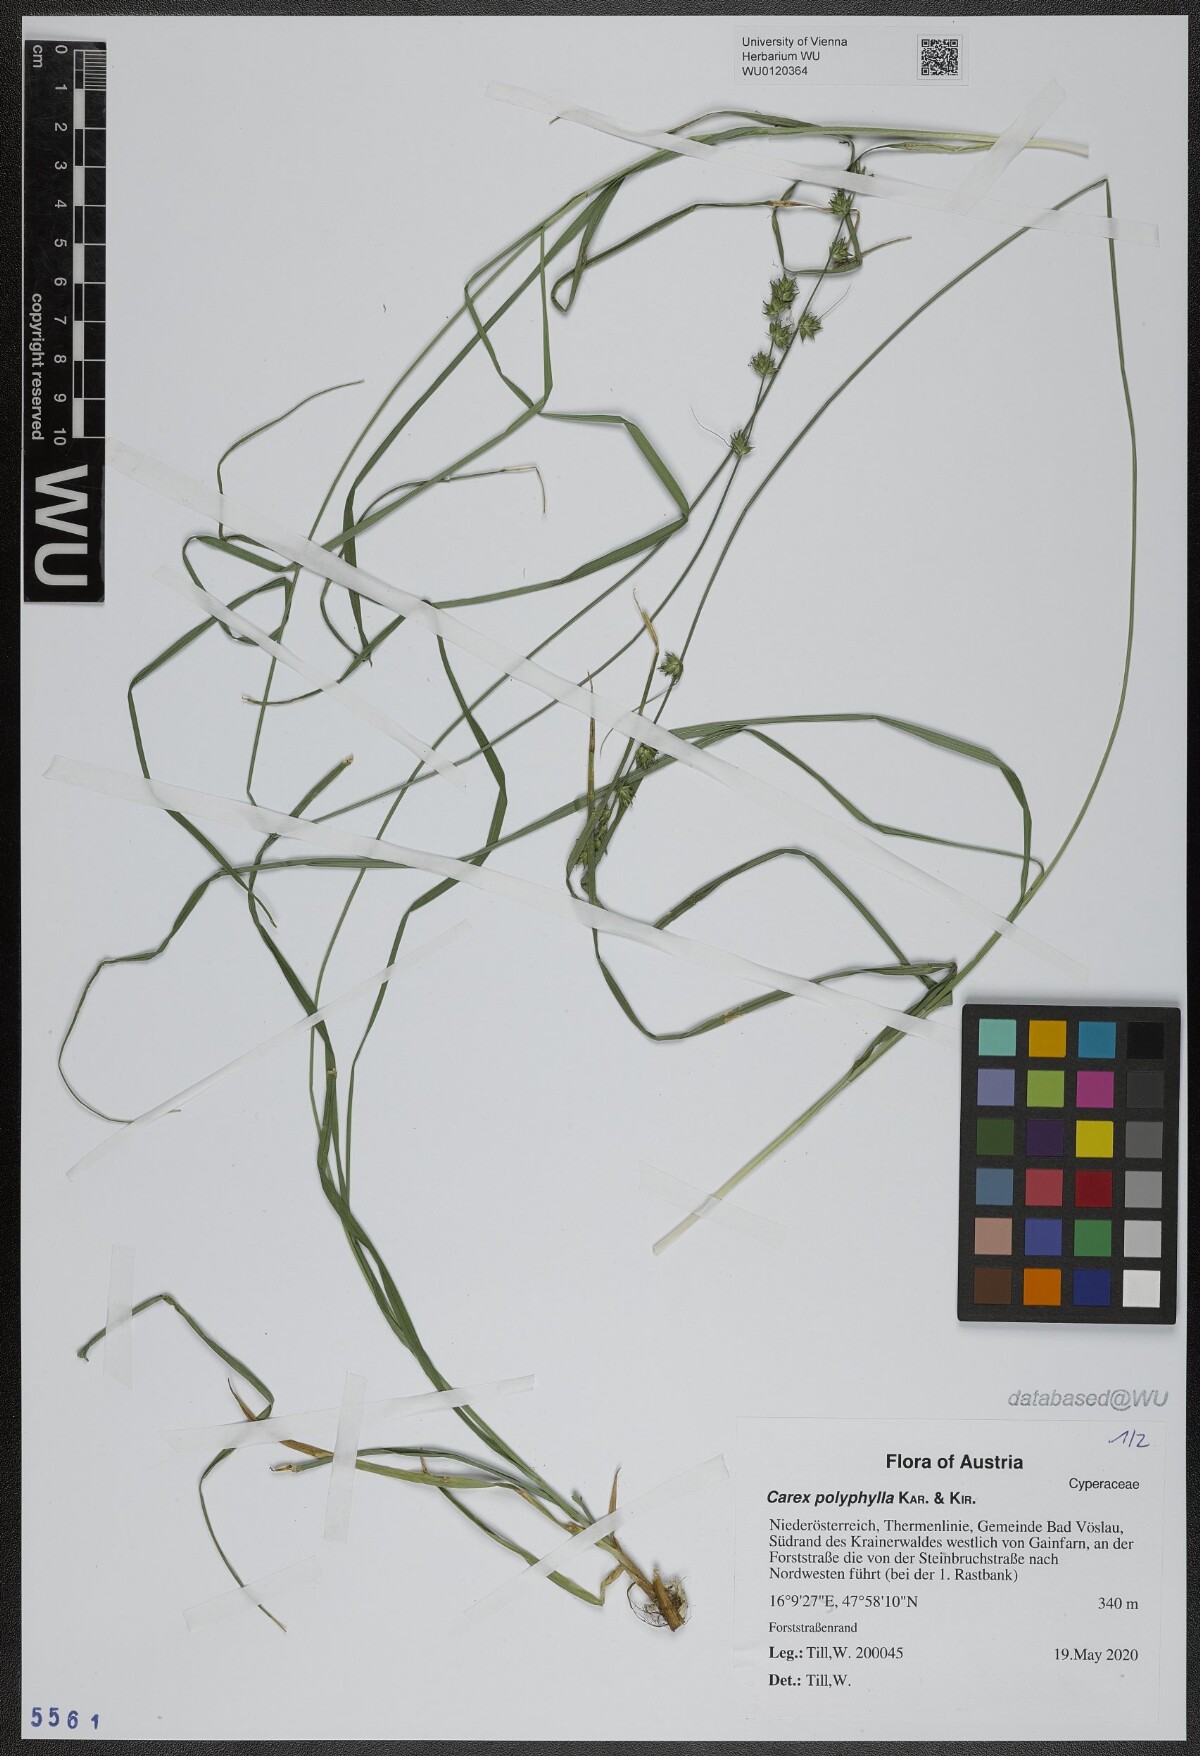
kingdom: Plantae
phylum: Tracheophyta
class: Liliopsida
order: Poales
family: Cyperaceae
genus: Carex
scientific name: Carex polyphylla
